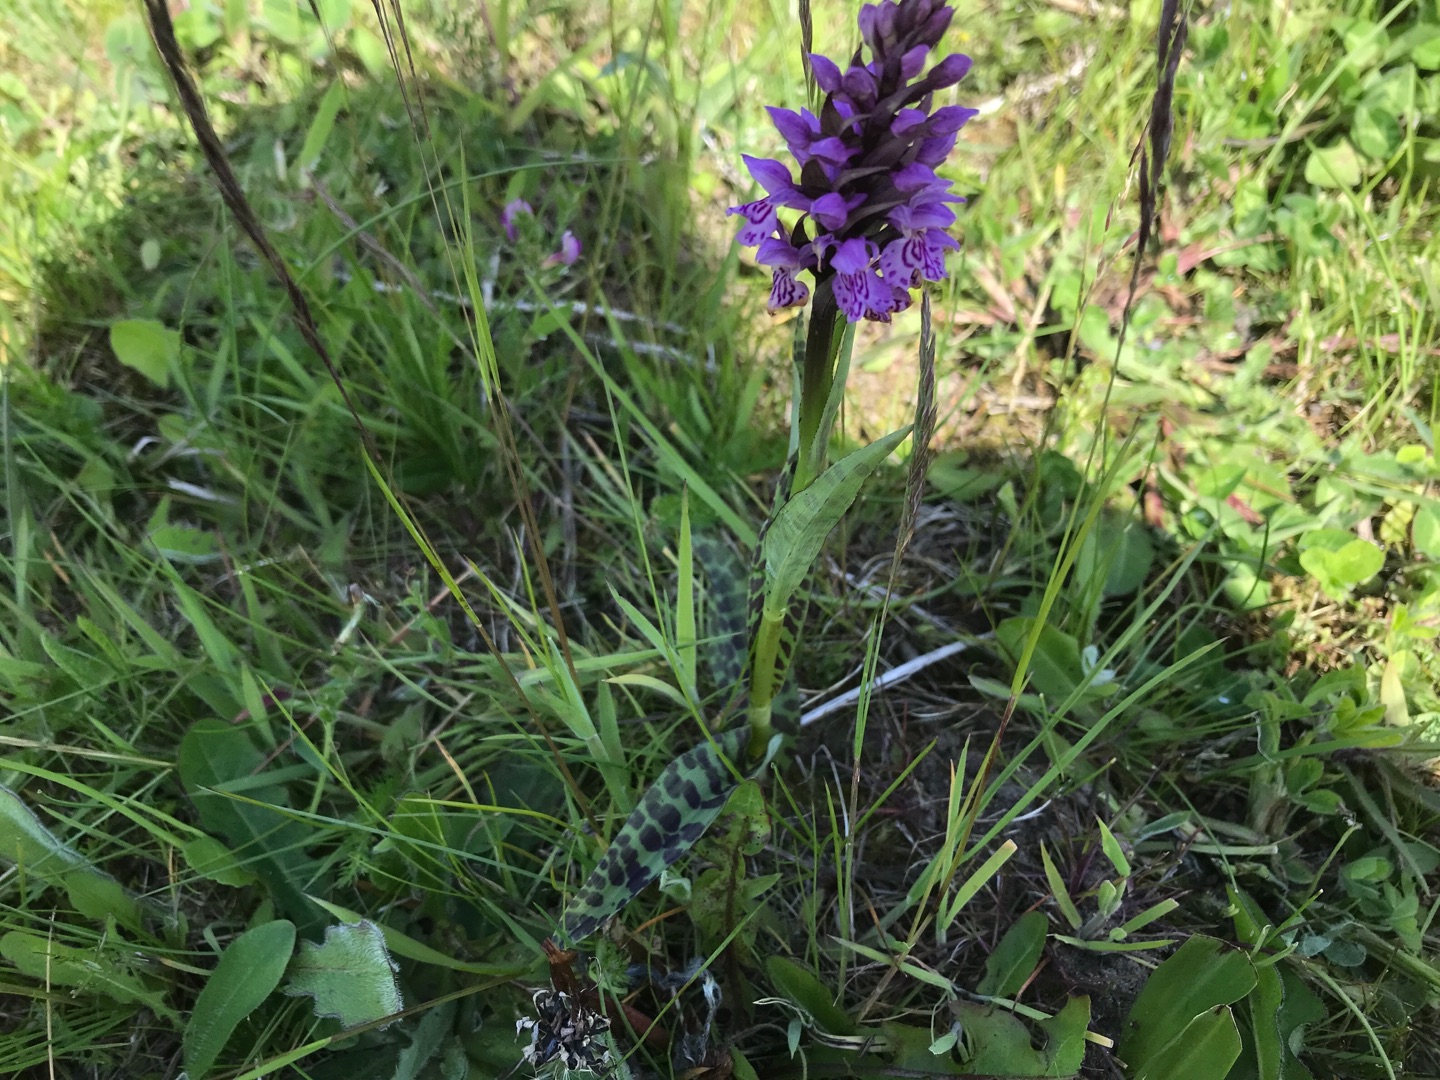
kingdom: Plantae
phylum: Tracheophyta
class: Liliopsida
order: Asparagales
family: Orchidaceae
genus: Dactylorhiza
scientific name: Dactylorhiza maculata
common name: Skov-gøgeurt
